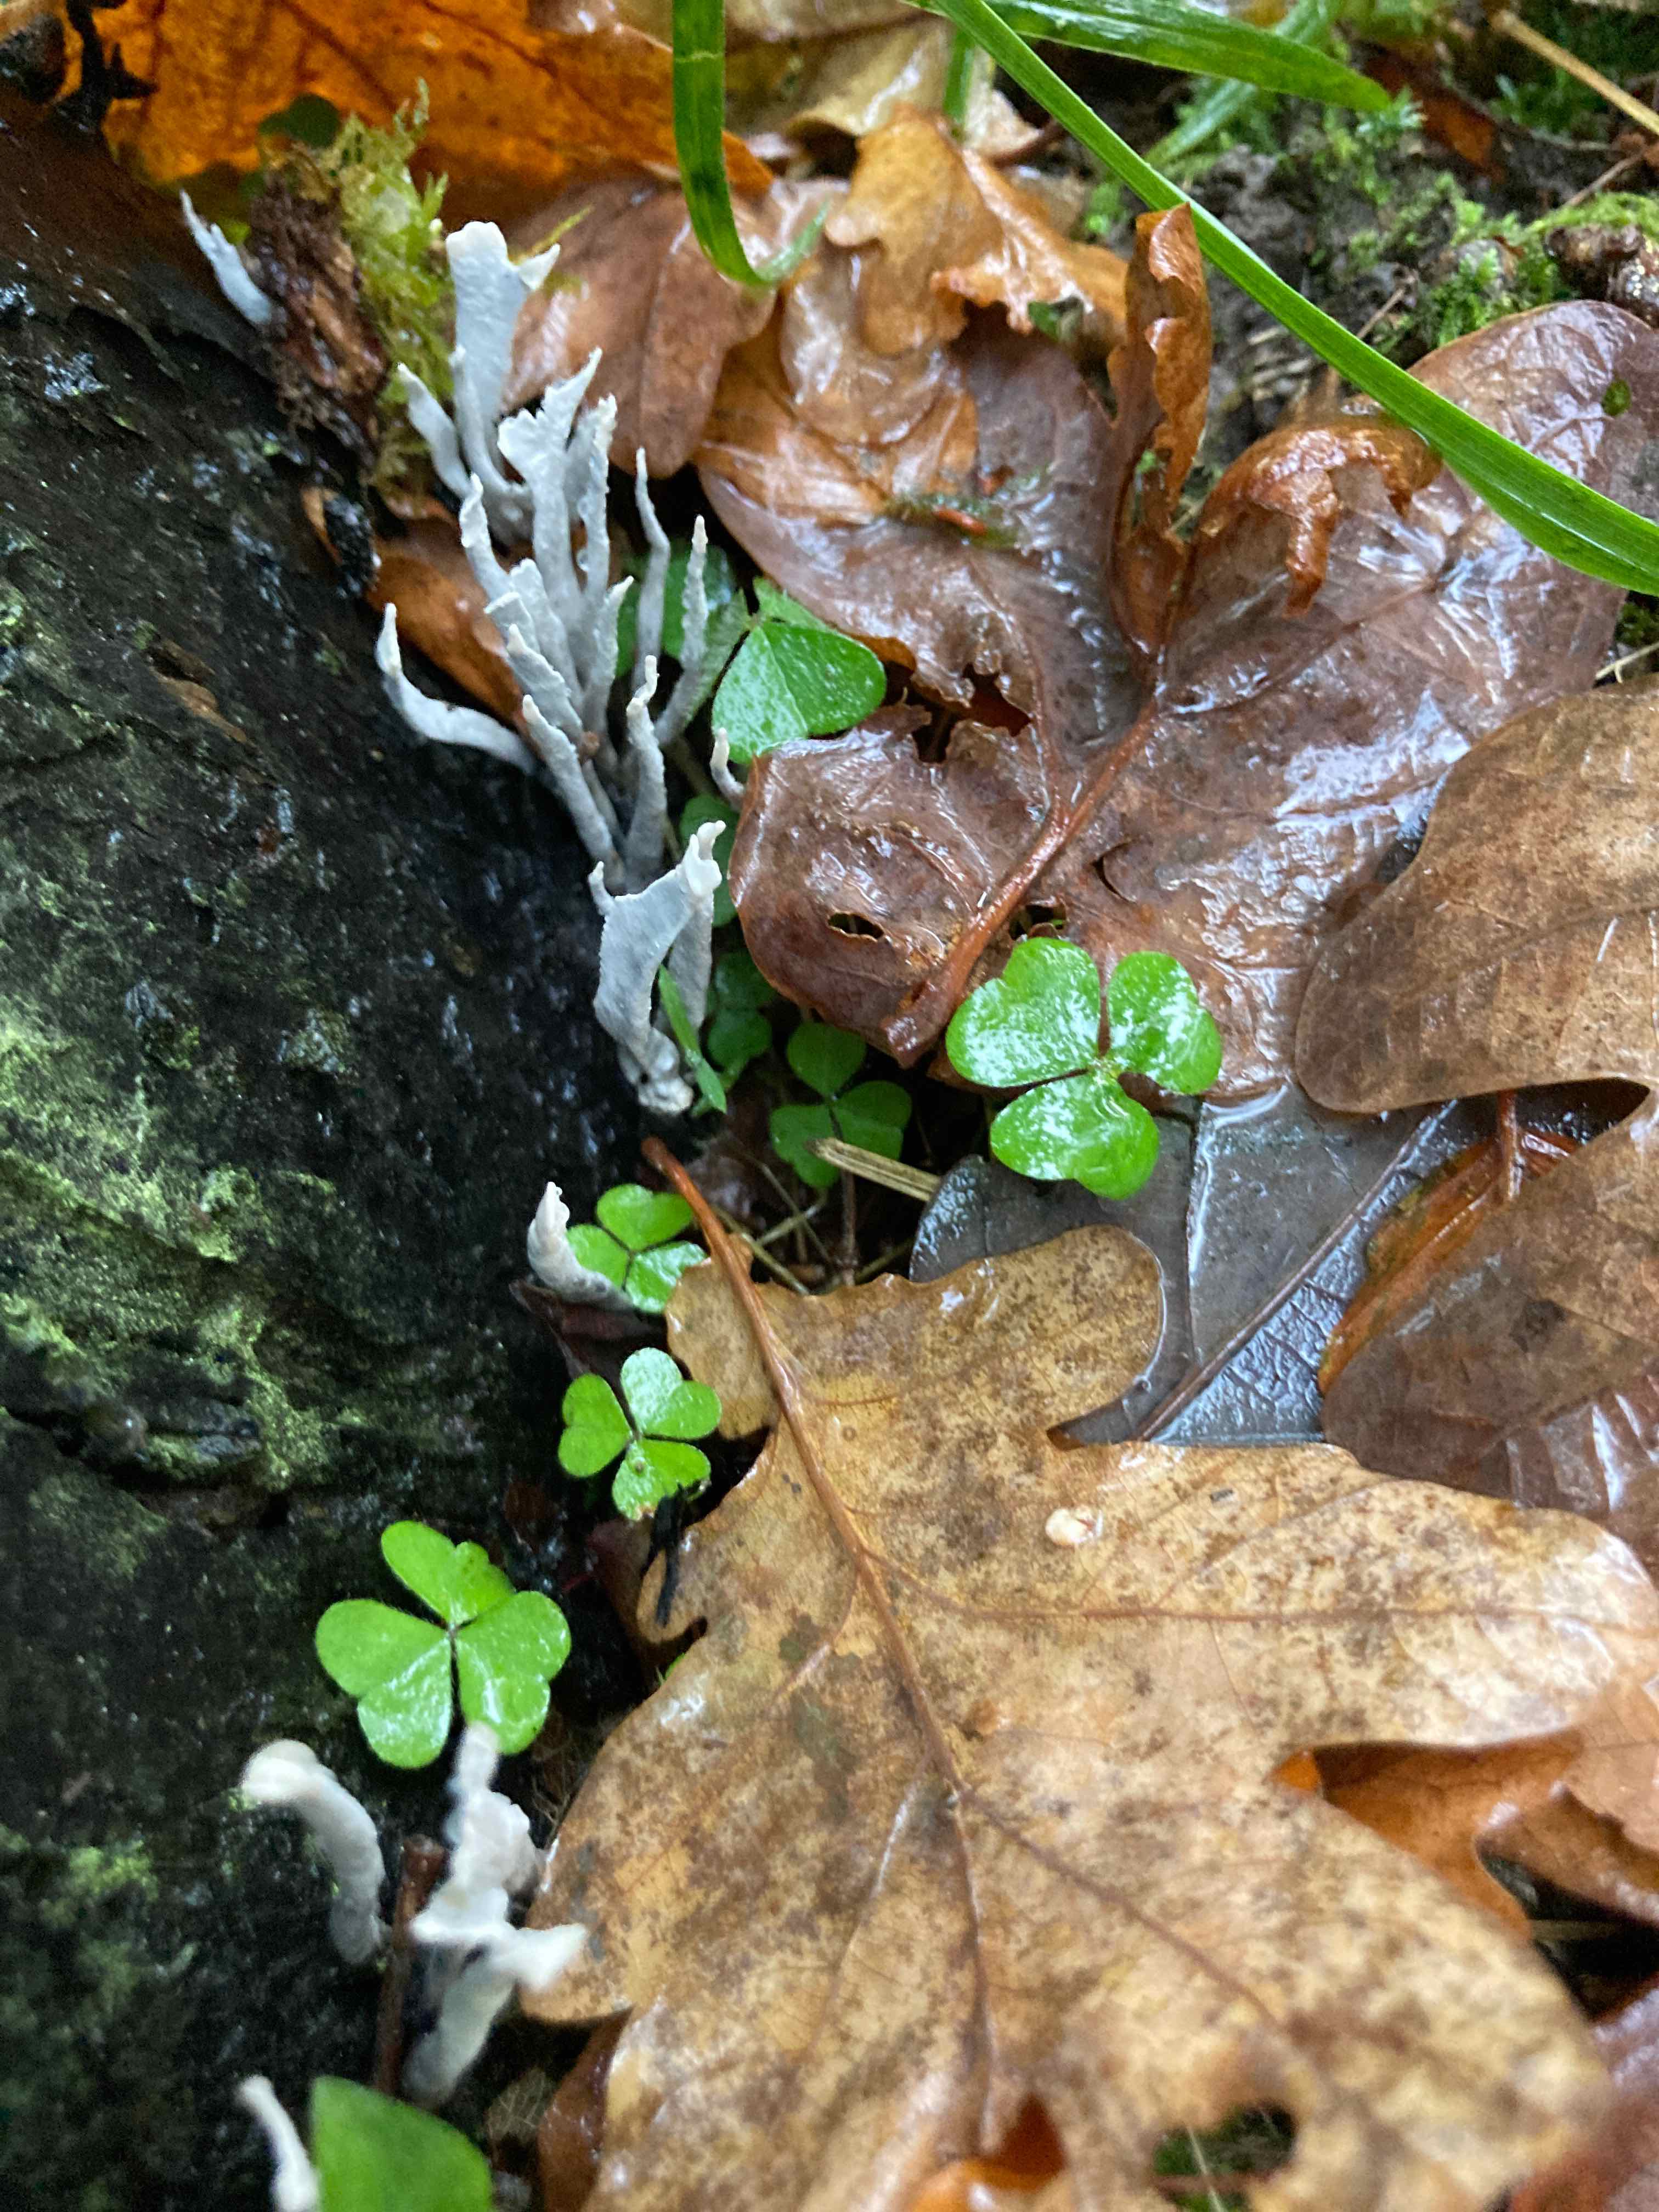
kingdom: Fungi
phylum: Ascomycota
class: Sordariomycetes
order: Xylariales
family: Xylariaceae
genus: Xylaria
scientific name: Xylaria hypoxylon
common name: grenet stødsvamp
